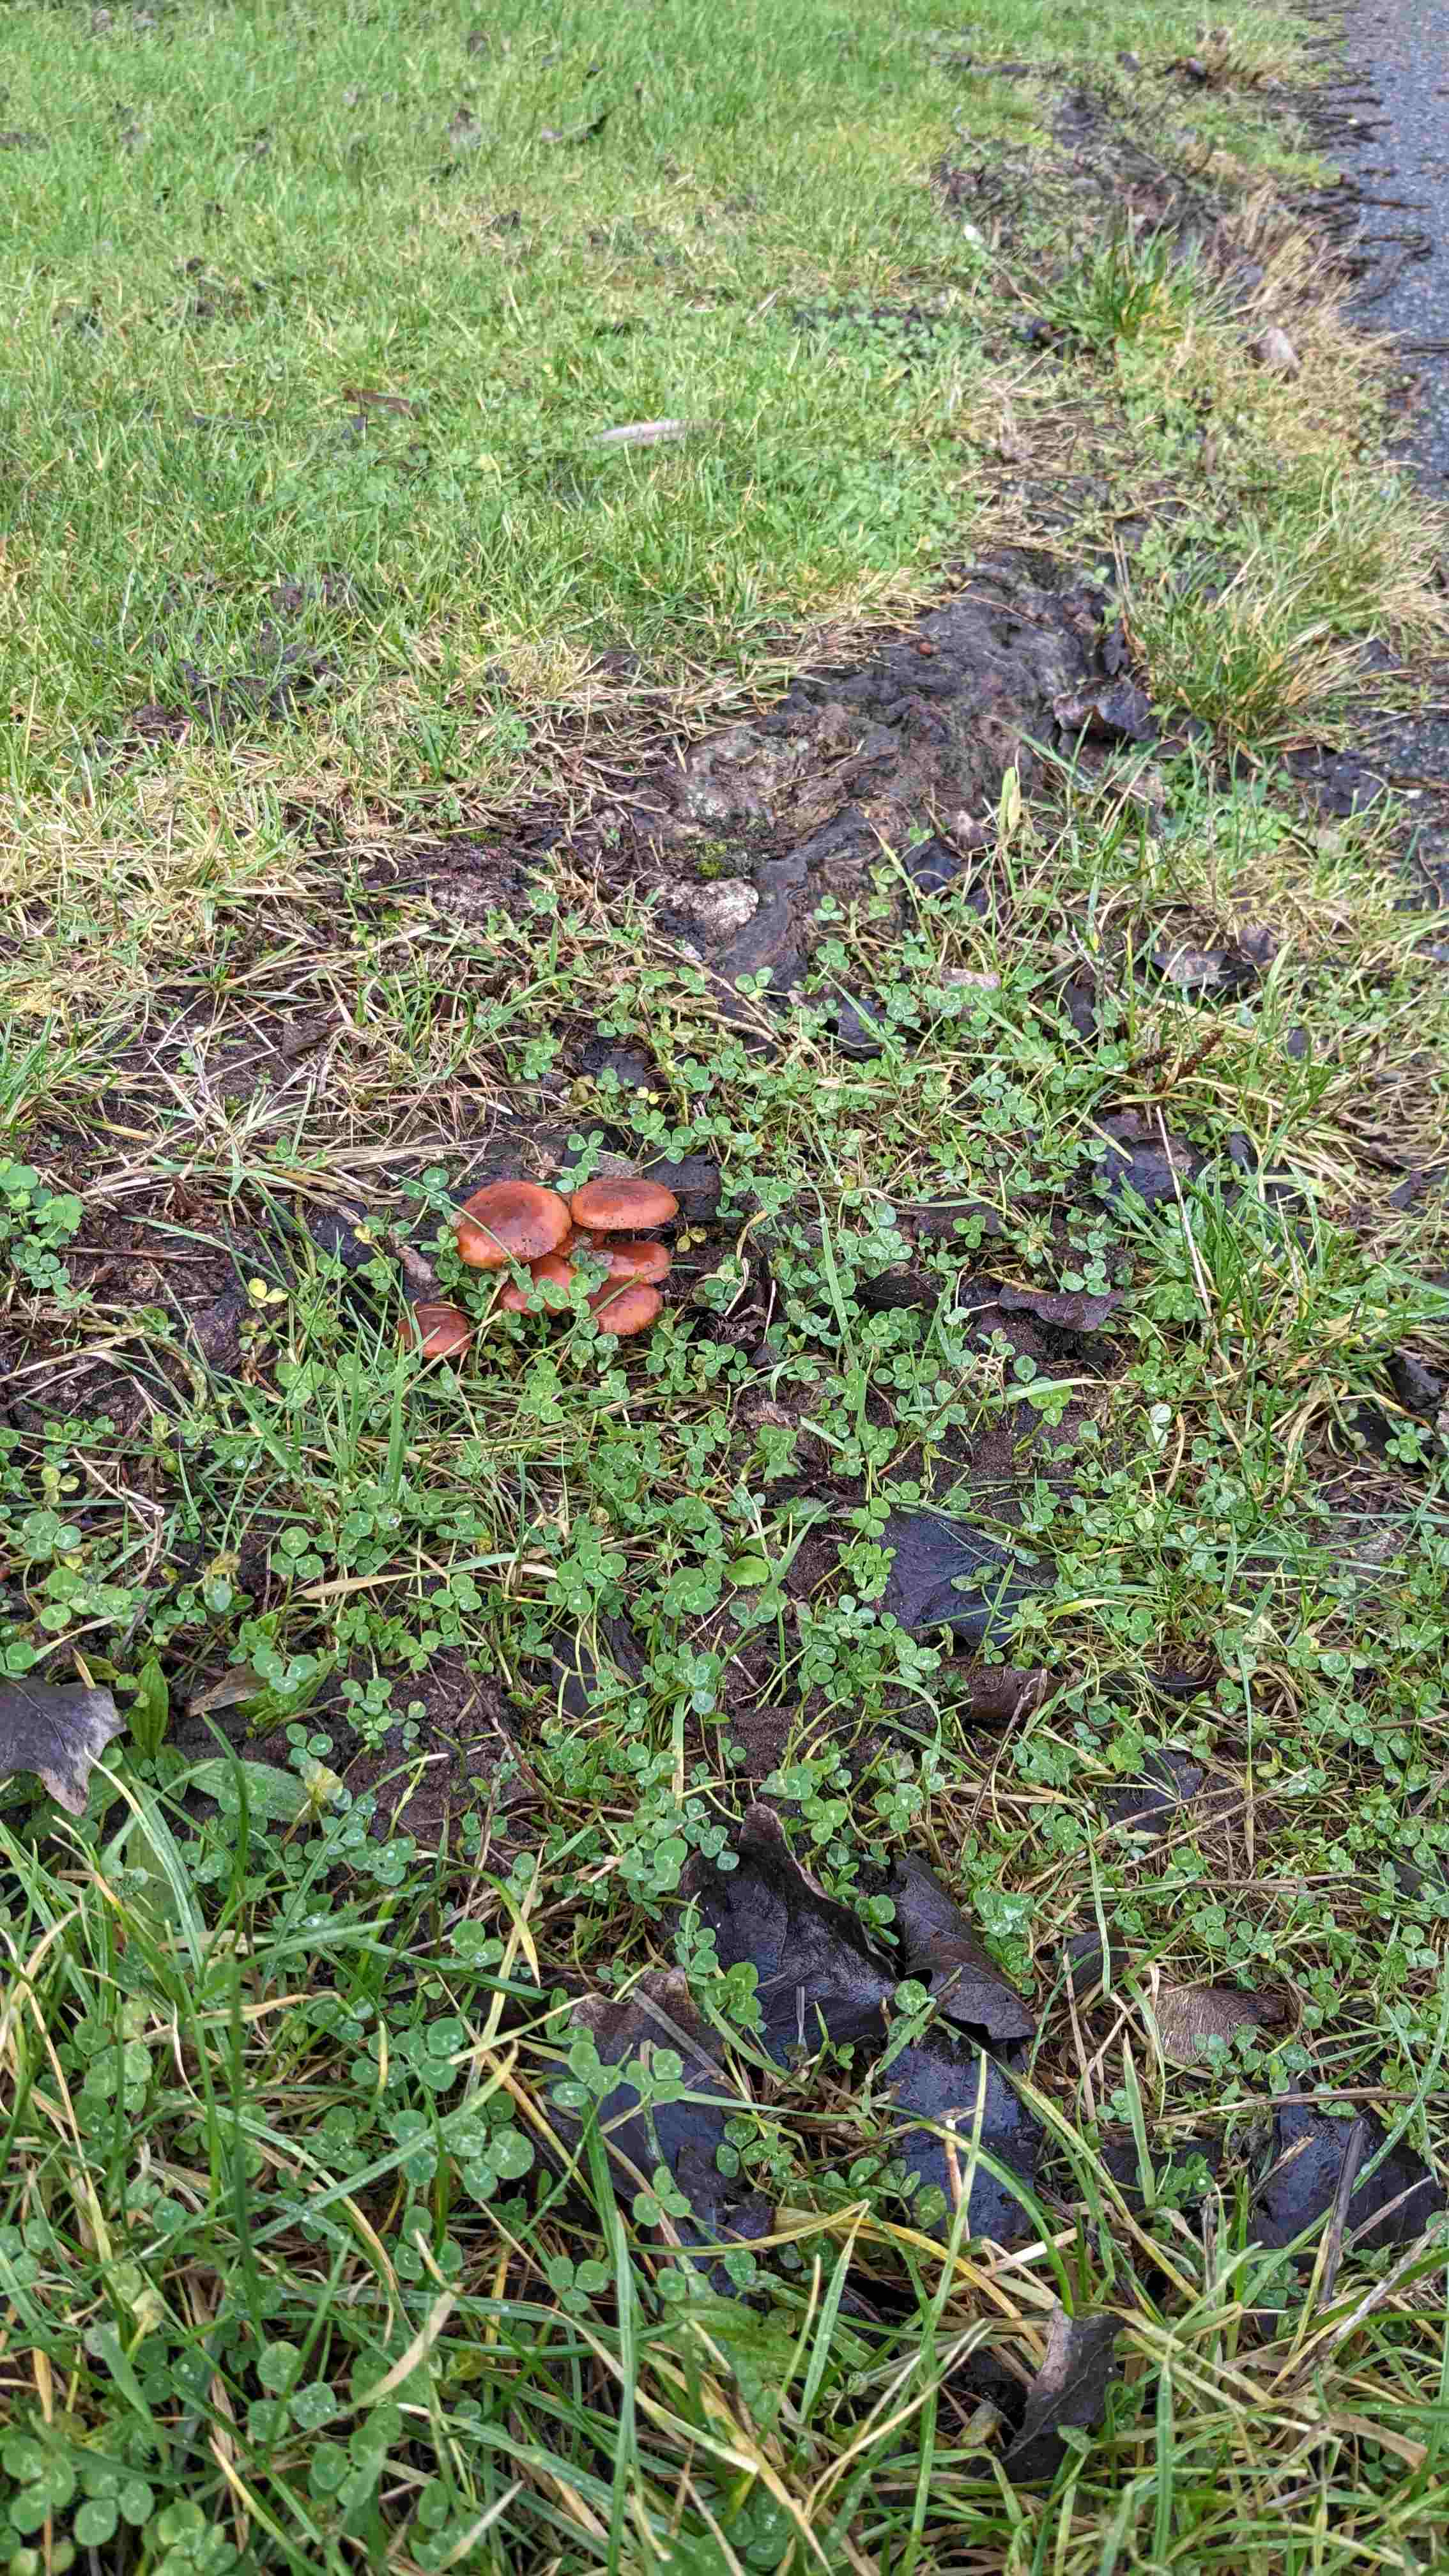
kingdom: Fungi
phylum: Basidiomycota
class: Agaricomycetes
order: Agaricales
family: Physalacriaceae
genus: Flammulina
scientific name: Flammulina
